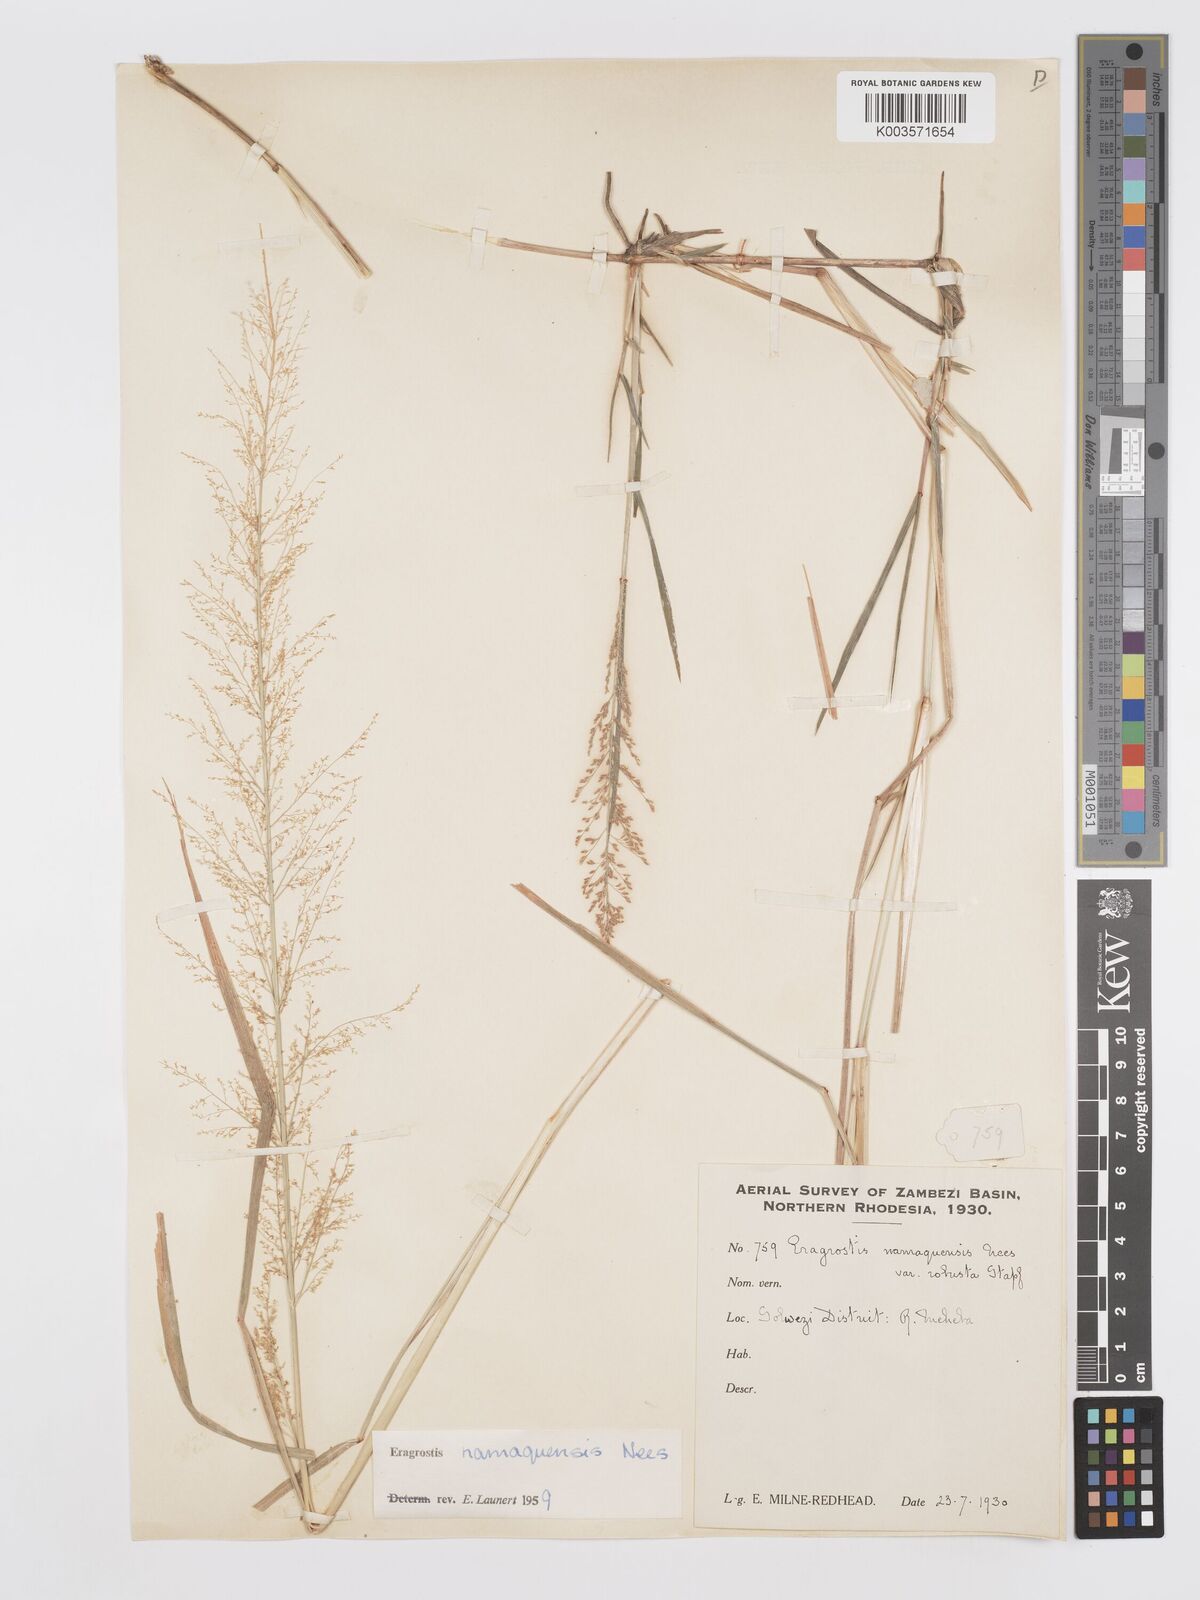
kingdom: Plantae
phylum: Tracheophyta
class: Liliopsida
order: Poales
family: Poaceae
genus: Eragrostis
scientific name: Eragrostis japonica
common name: Pond lovegrass
